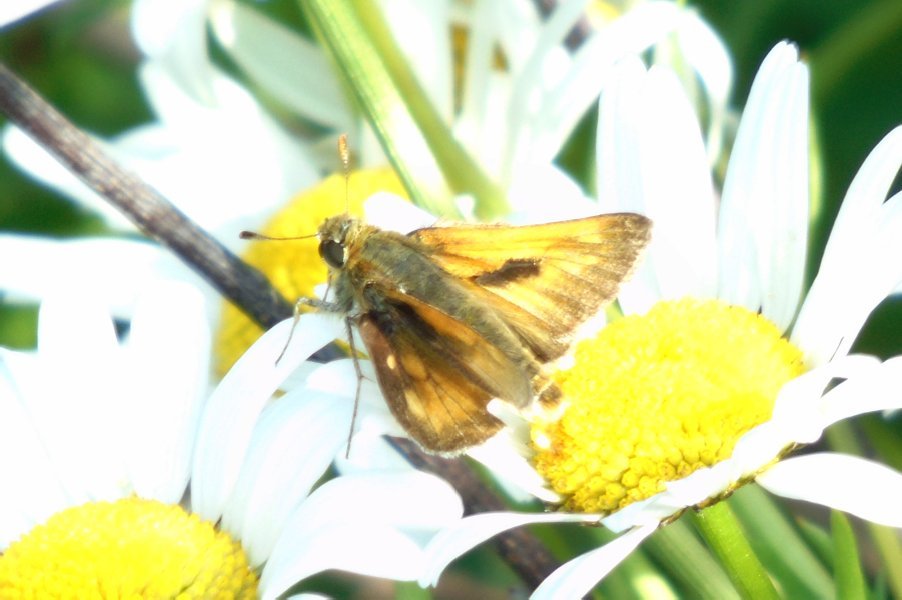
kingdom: Animalia
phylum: Arthropoda
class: Insecta
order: Lepidoptera
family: Hesperiidae
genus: Polites
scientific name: Polites
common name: Long Dash Skipper
